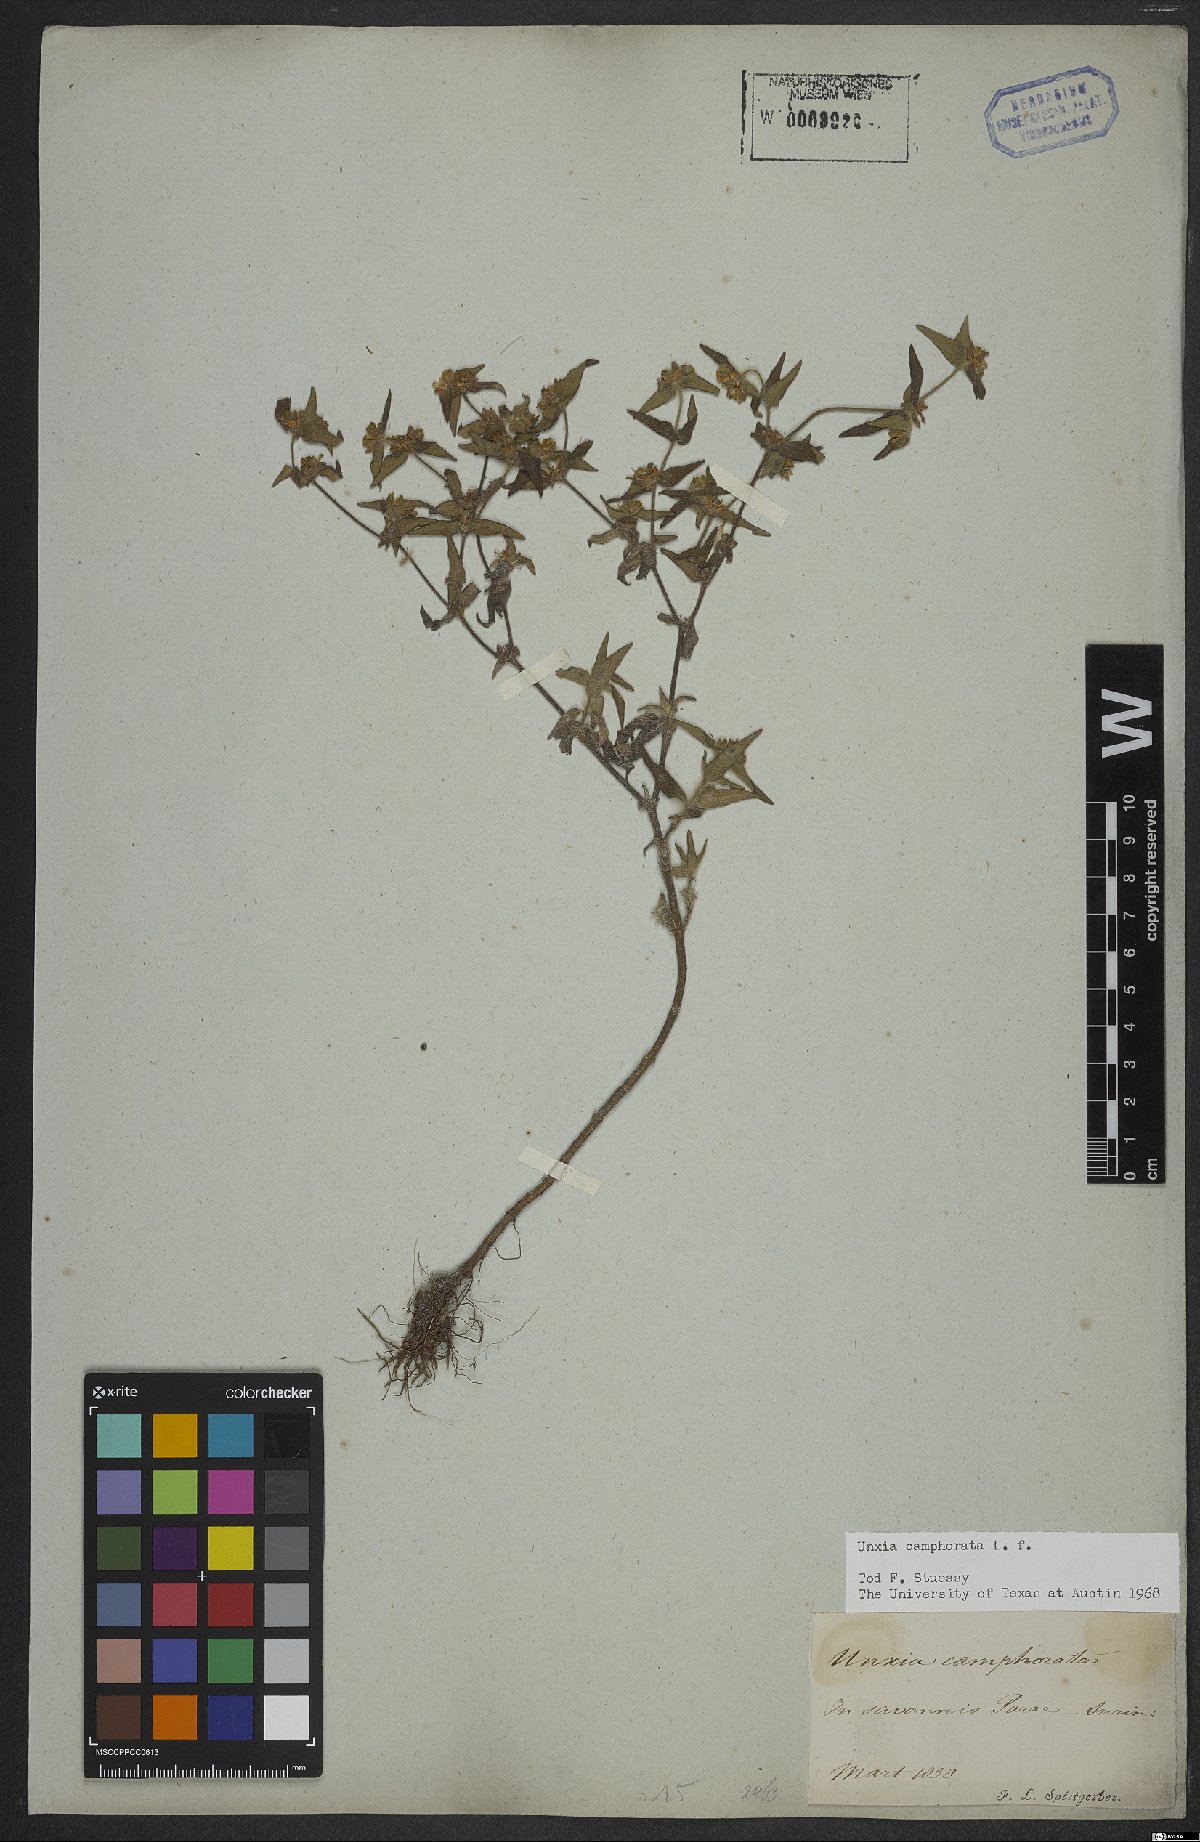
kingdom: Plantae
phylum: Tracheophyta
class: Magnoliopsida
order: Asterales
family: Asteraceae
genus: Unxia
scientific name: Unxia camphorata
